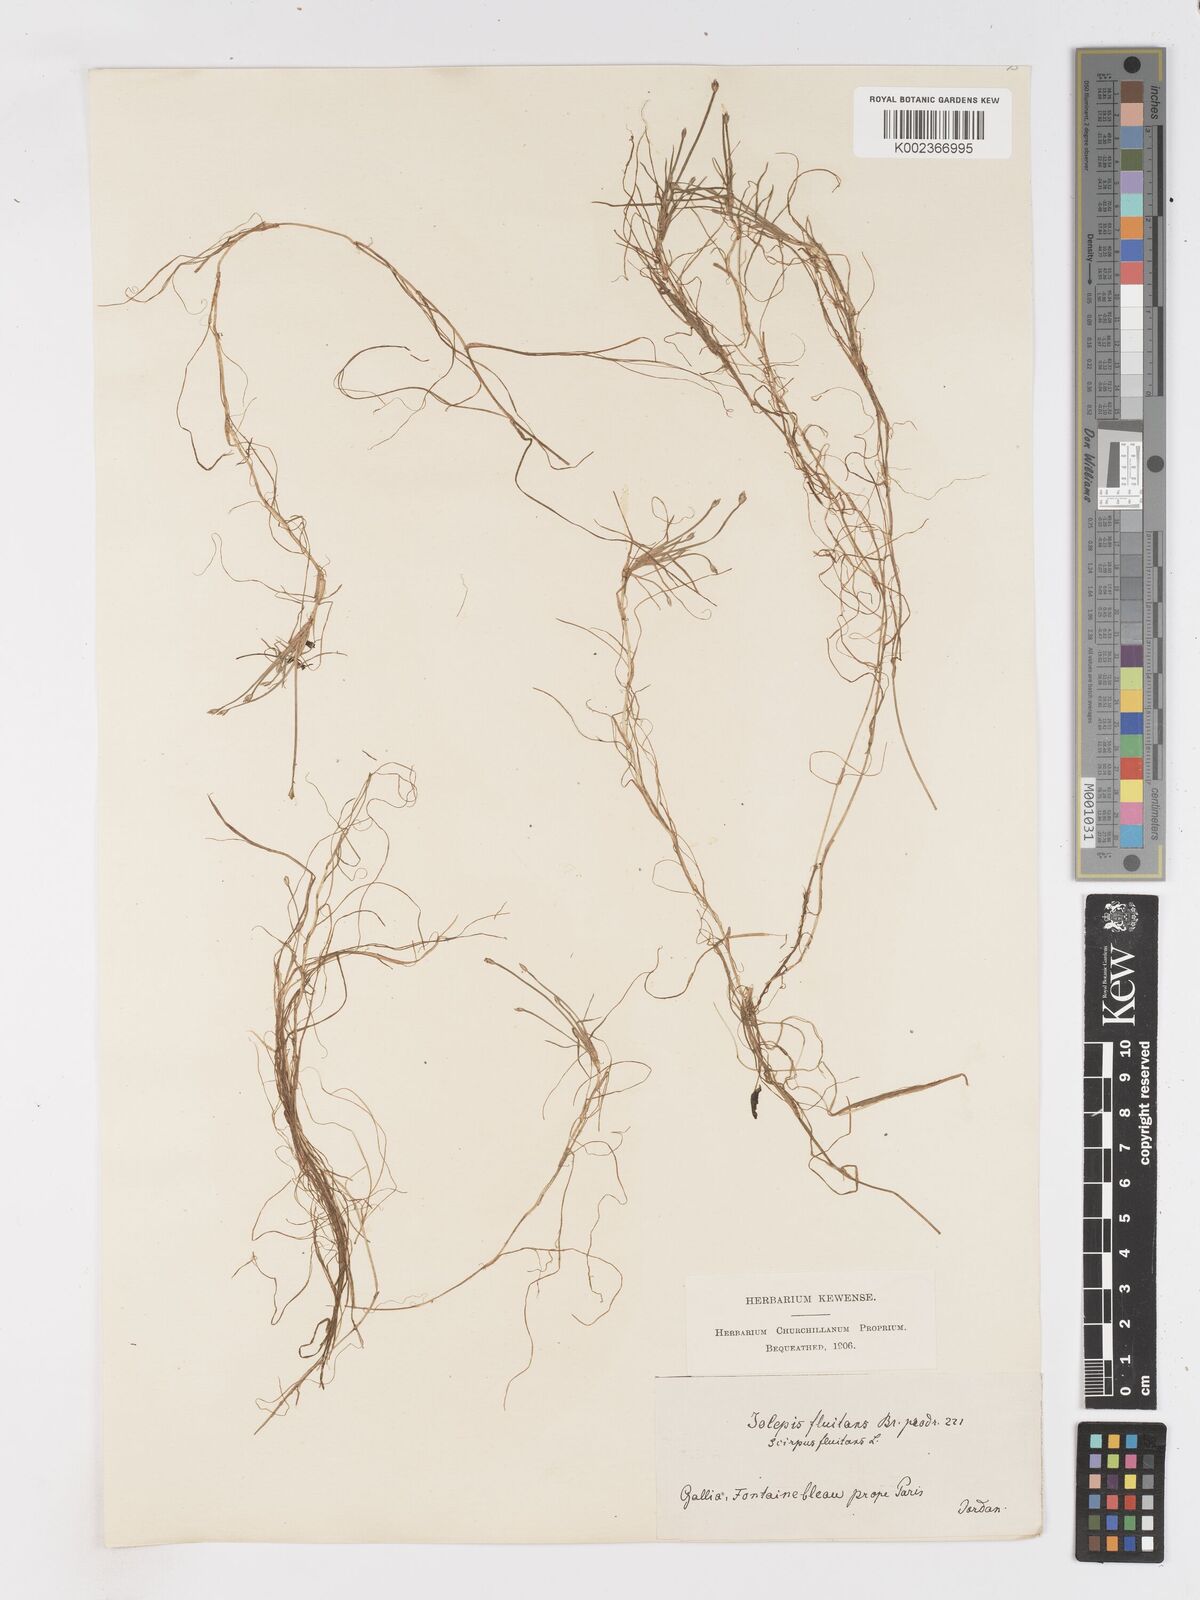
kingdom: Plantae
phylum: Tracheophyta
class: Liliopsida
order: Poales
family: Cyperaceae
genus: Isolepis
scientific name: Isolepis fluitans
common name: Floating club-rush
